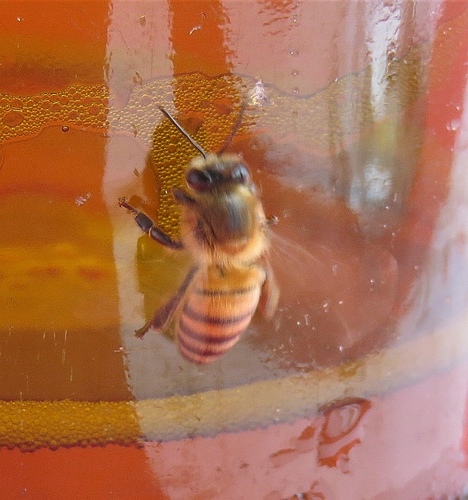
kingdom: Animalia
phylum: Arthropoda
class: Insecta
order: Hymenoptera
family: Apidae
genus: Apis
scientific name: Apis mellifera
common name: Honey bee
